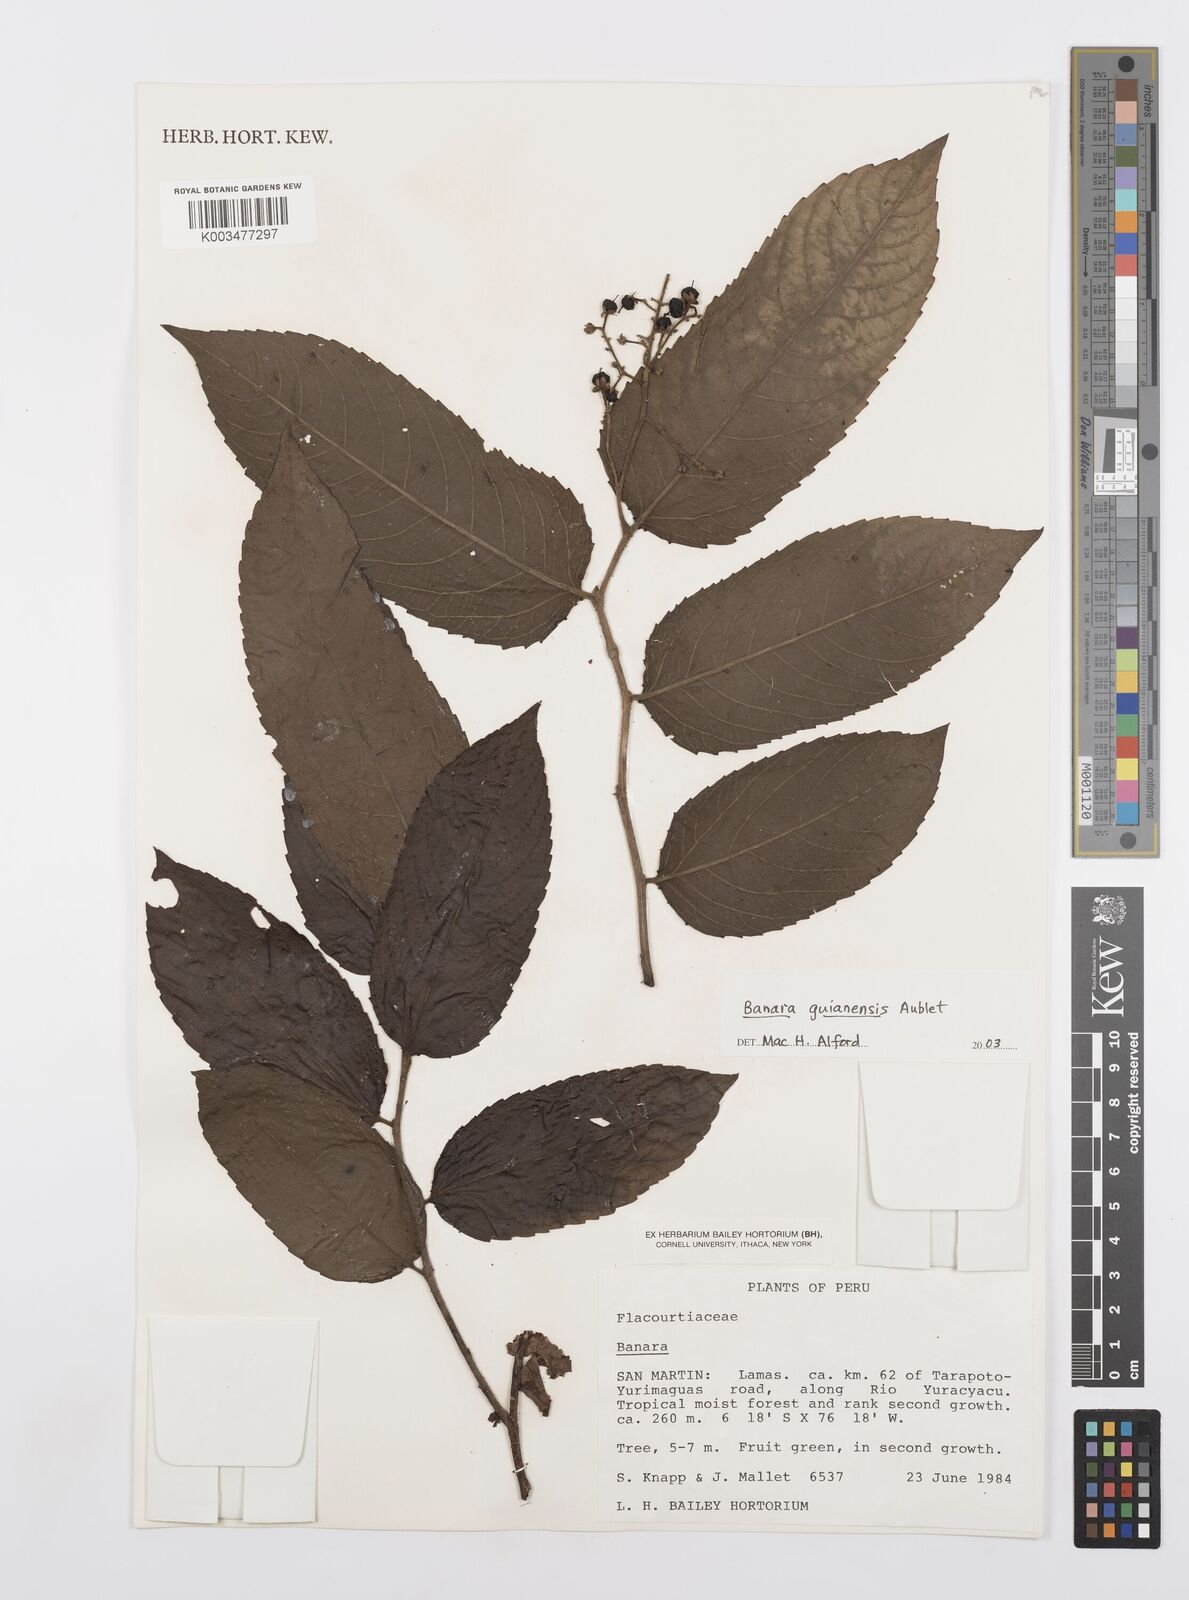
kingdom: Plantae
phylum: Tracheophyta
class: Magnoliopsida
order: Malpighiales
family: Salicaceae
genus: Banara
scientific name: Banara guianensis
